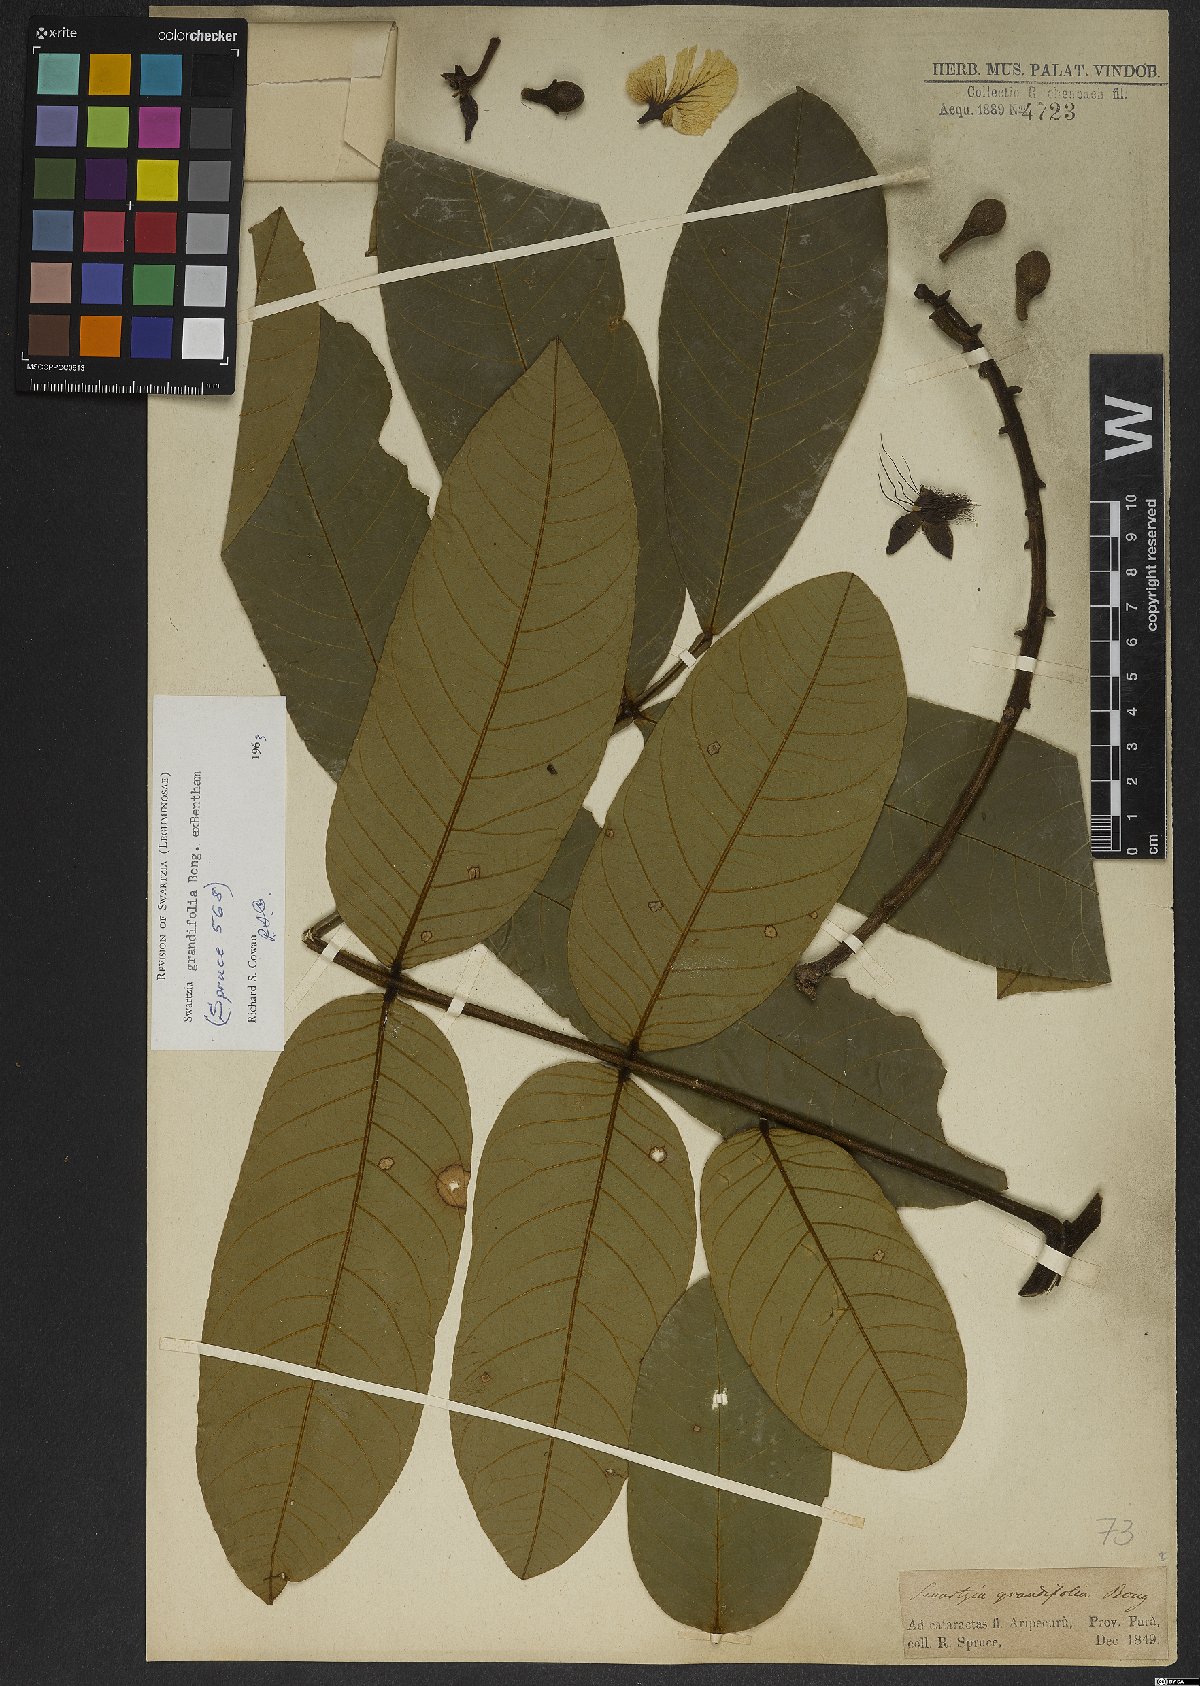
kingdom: Plantae
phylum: Tracheophyta
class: Magnoliopsida
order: Fabales
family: Fabaceae
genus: Swartzia
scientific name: Swartzia grandifolia
